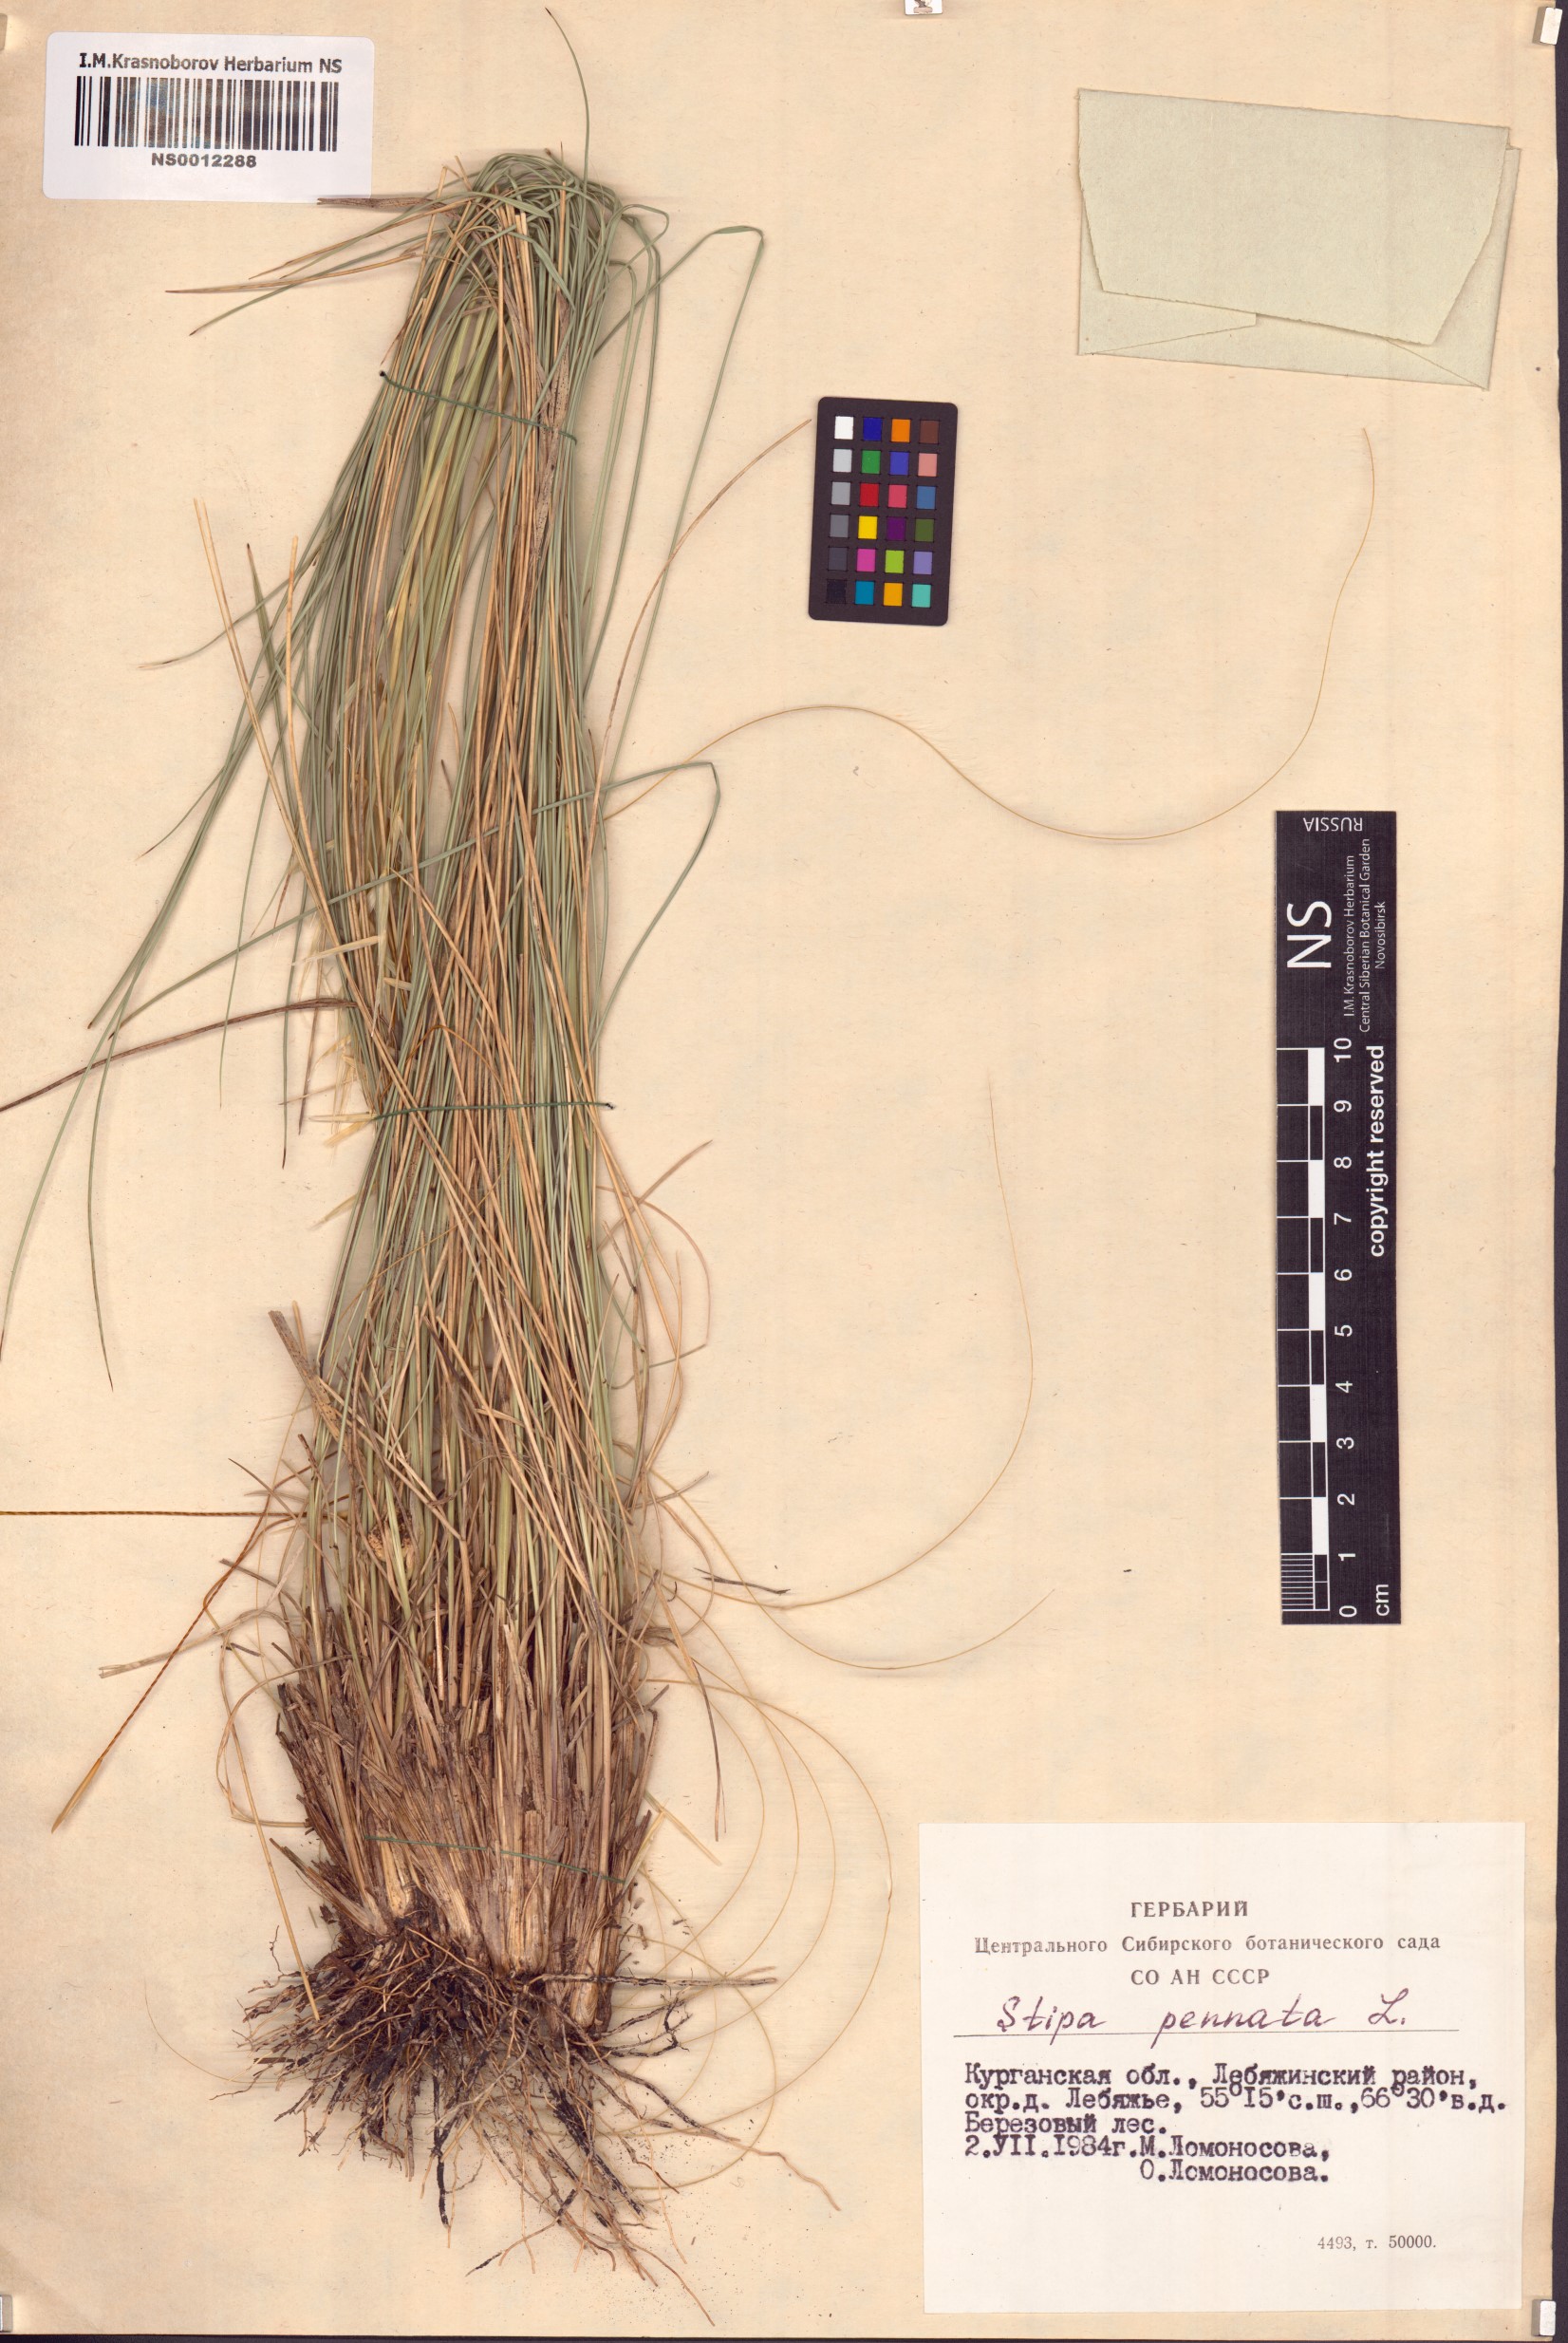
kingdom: Plantae
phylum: Tracheophyta
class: Liliopsida
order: Poales
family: Poaceae
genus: Stipa
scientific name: Stipa pennata
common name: European feather grass
